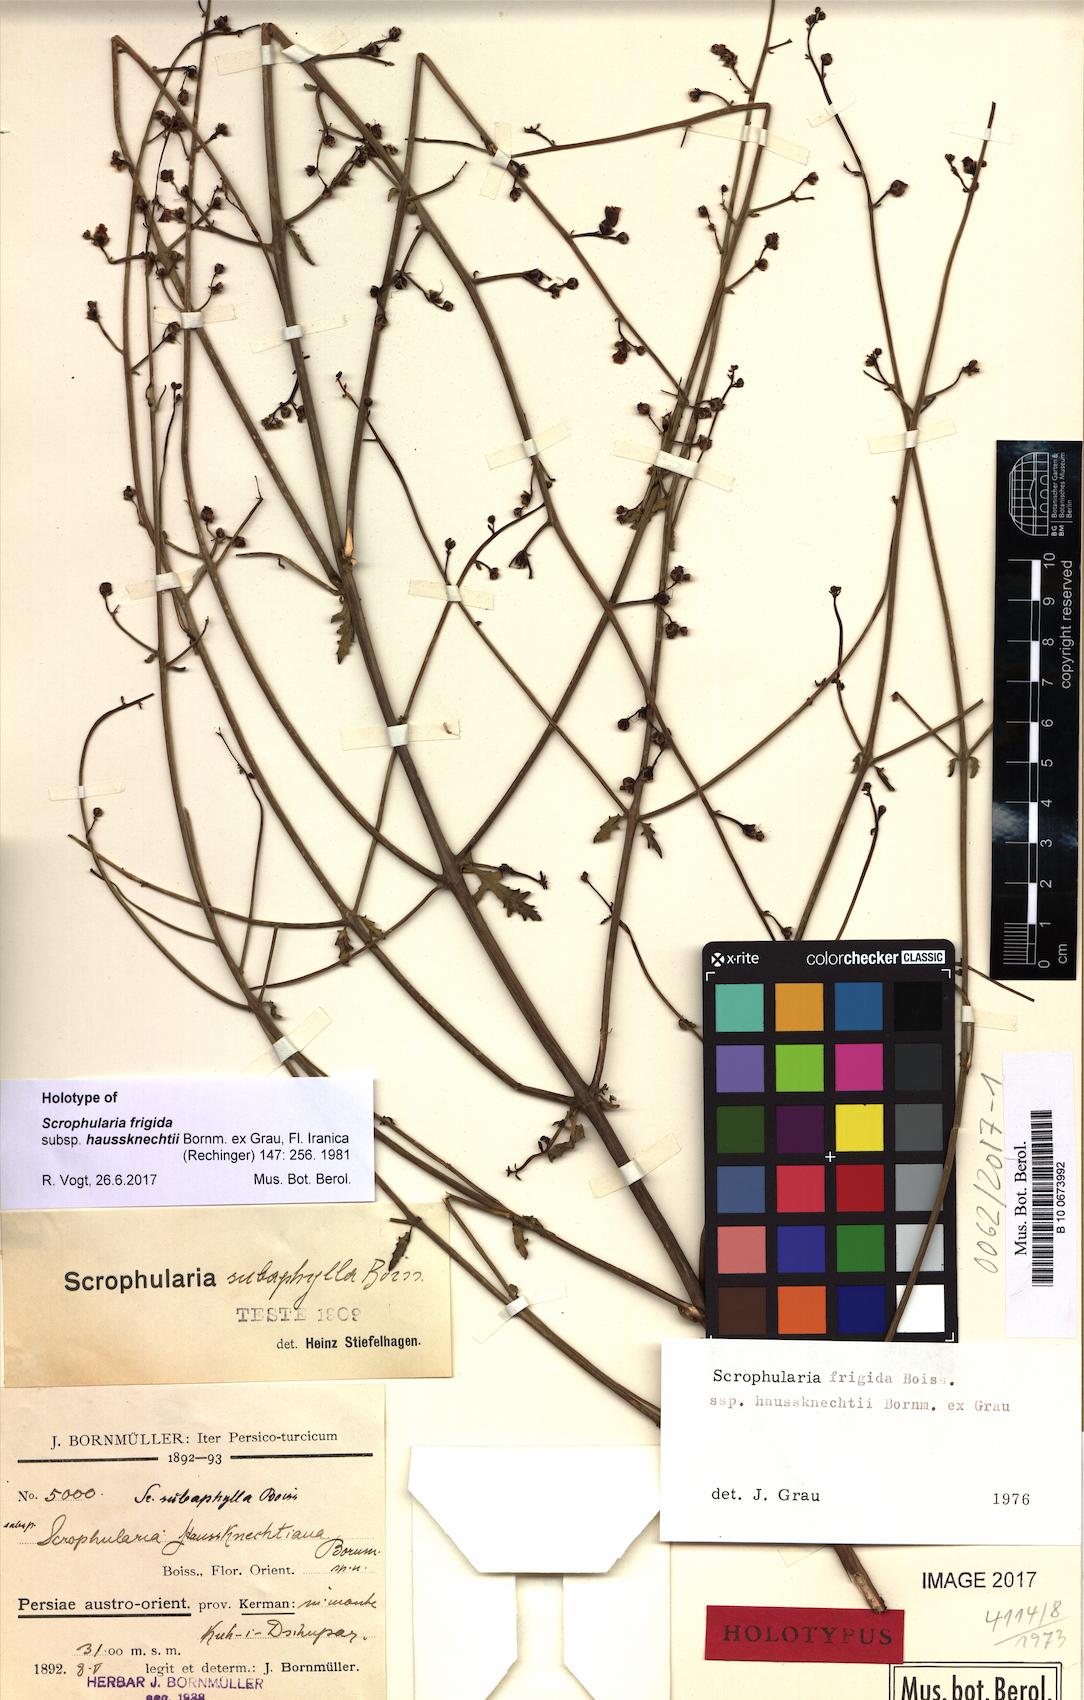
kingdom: Plantae
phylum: Tracheophyta
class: Magnoliopsida
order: Lamiales
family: Scrophulariaceae
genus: Scrophularia
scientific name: Scrophularia frigida
